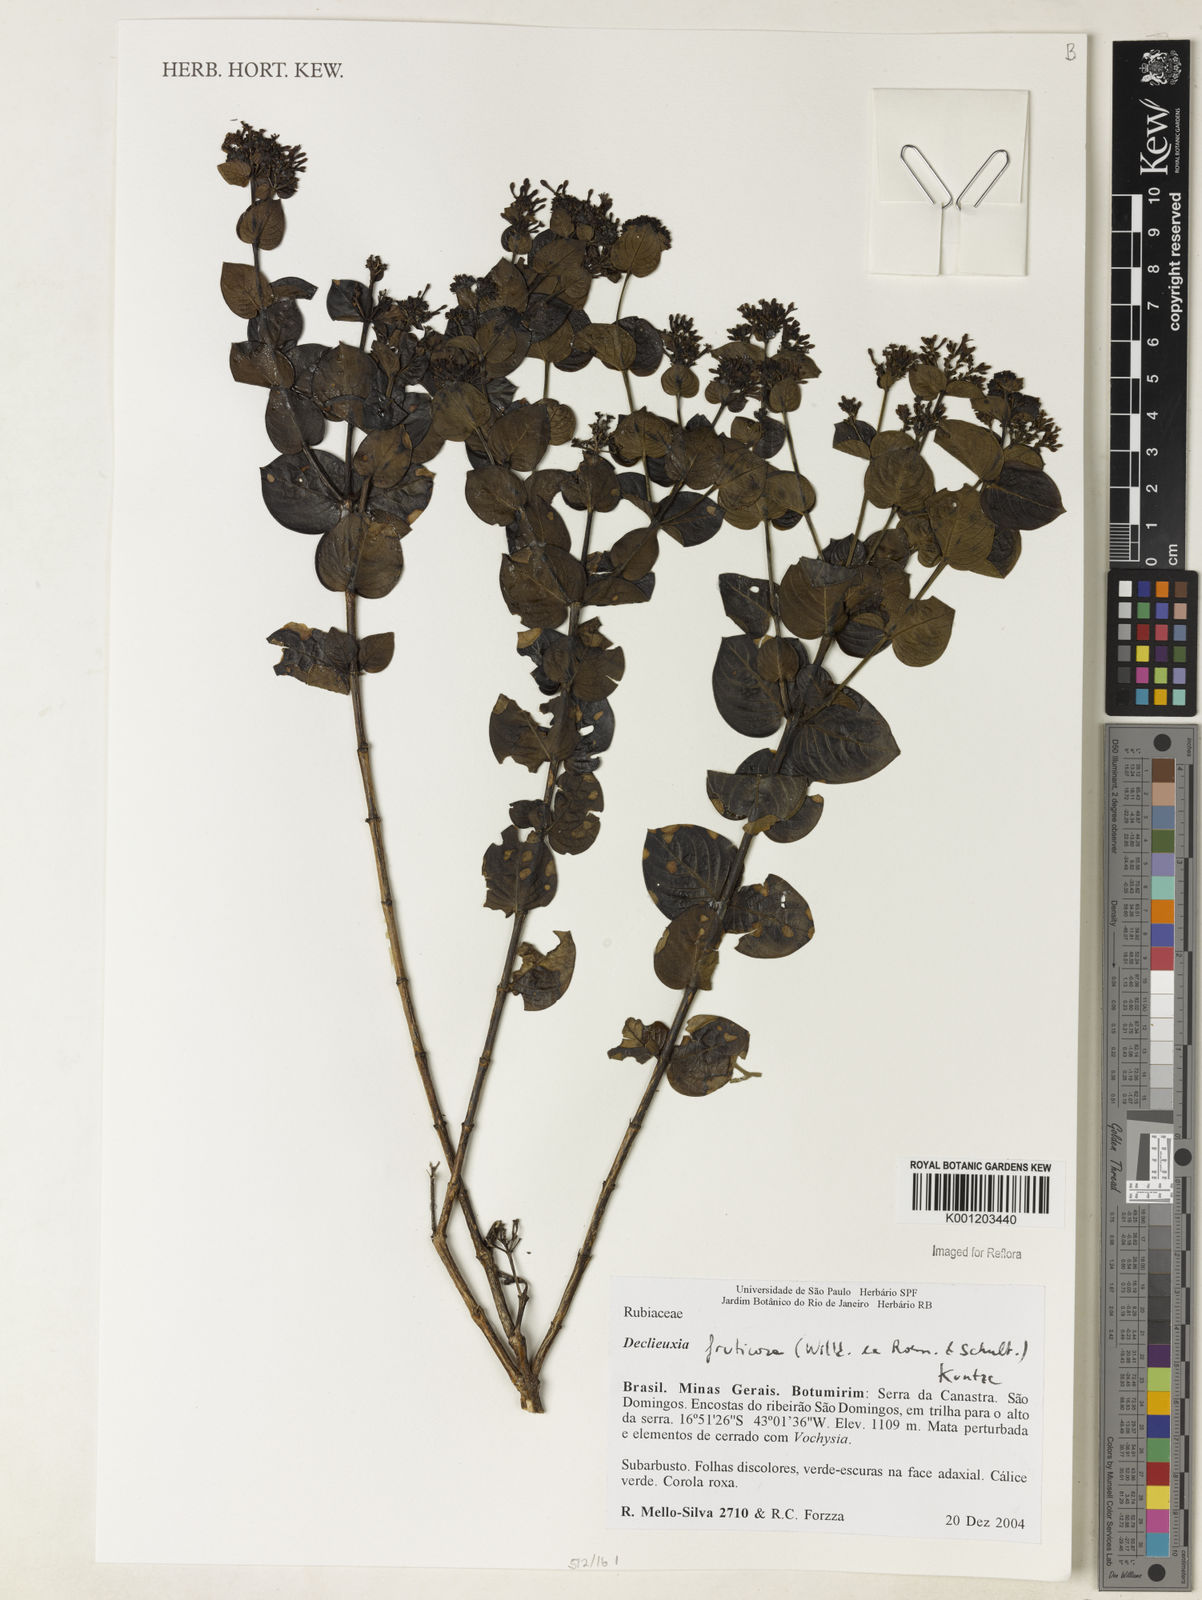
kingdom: Plantae
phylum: Tracheophyta
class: Magnoliopsida
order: Gentianales
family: Rubiaceae
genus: Declieuxia
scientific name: Declieuxia fruticosa
